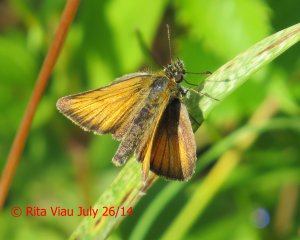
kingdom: Animalia
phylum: Arthropoda
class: Insecta
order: Lepidoptera
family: Hesperiidae
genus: Thymelicus
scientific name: Thymelicus lineola
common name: European Skipper
